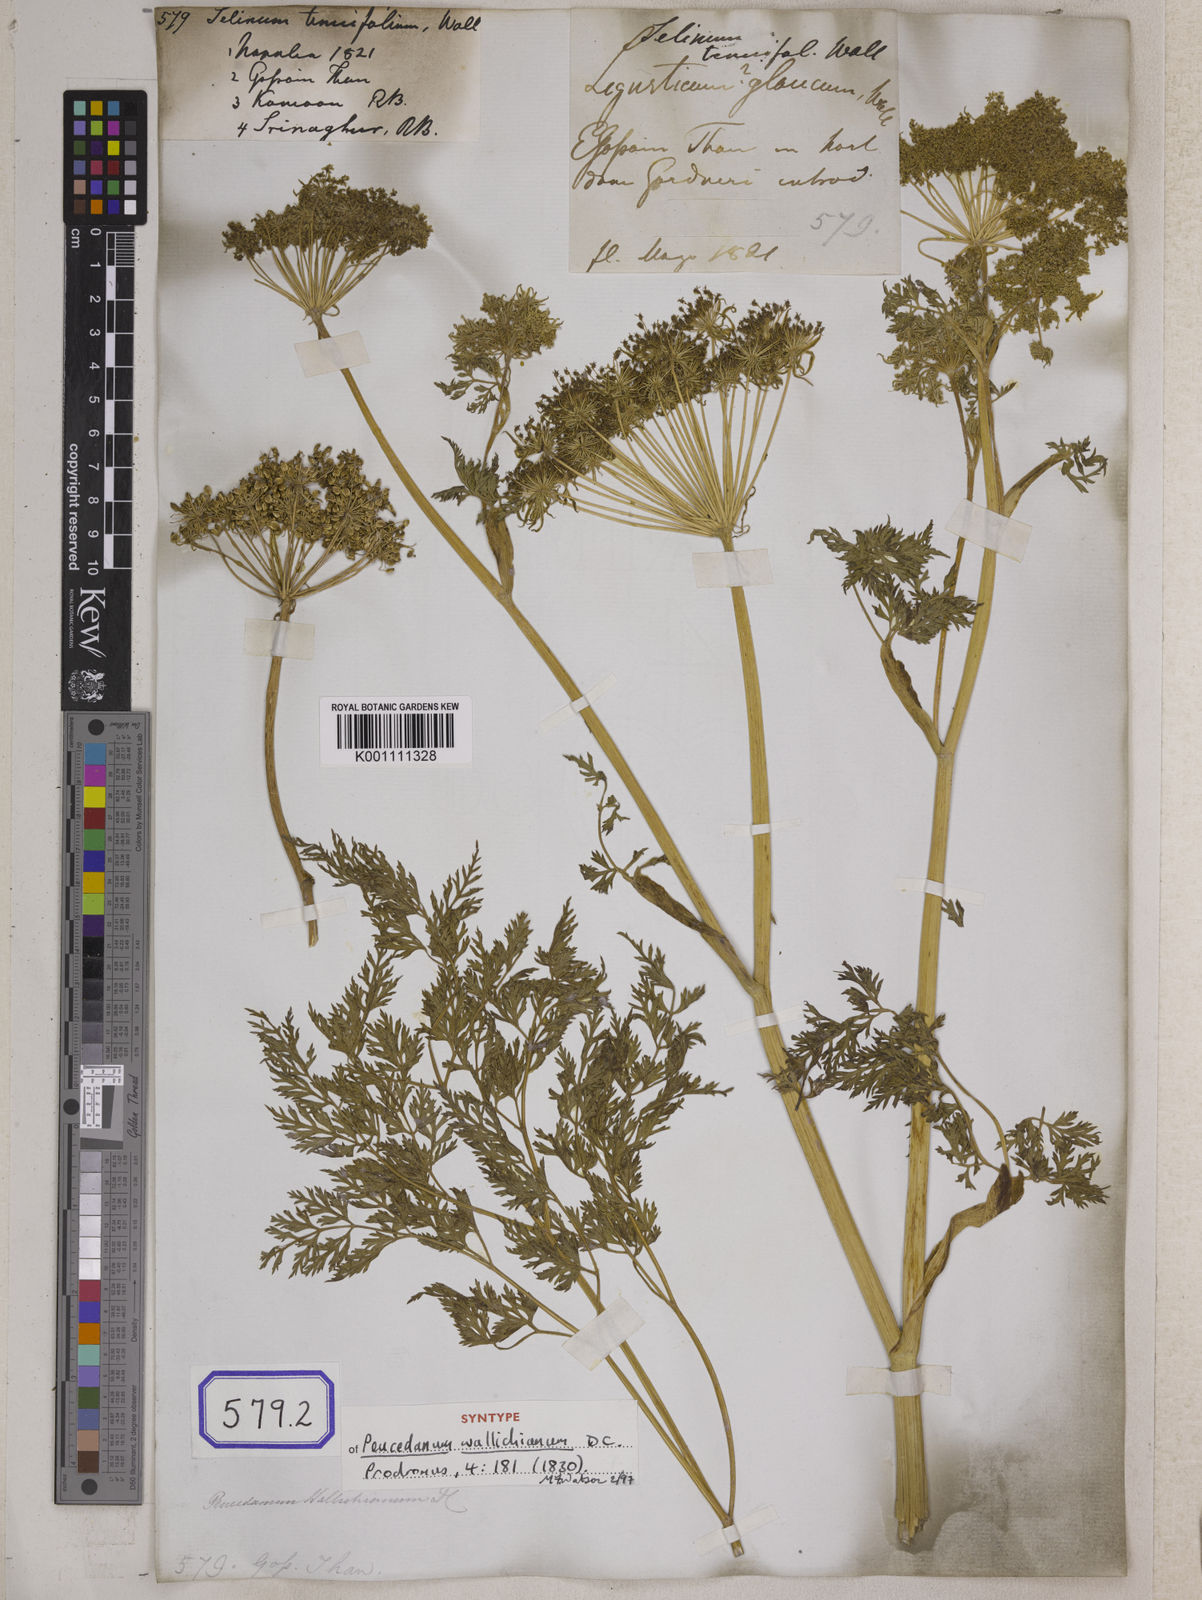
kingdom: Plantae
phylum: Tracheophyta
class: Magnoliopsida
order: Apiales
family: Apiaceae
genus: Selinum
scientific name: Selinum
